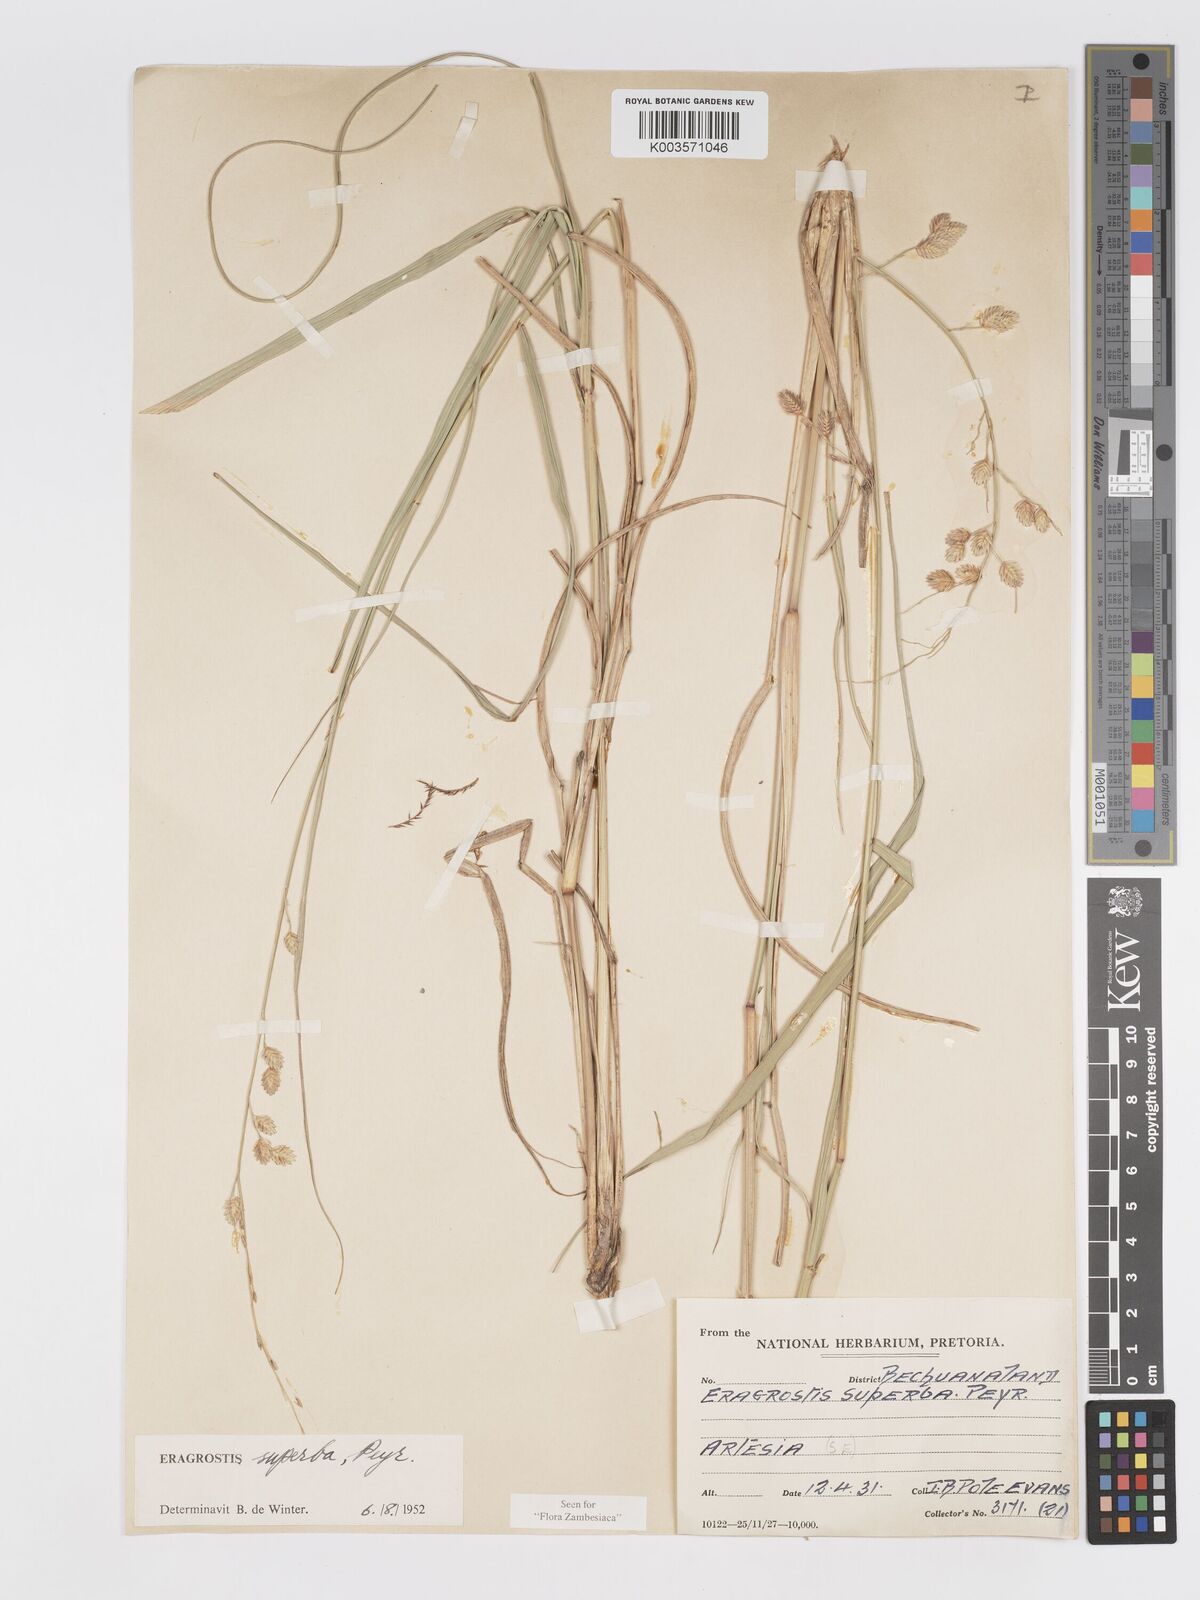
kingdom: Plantae
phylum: Tracheophyta
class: Liliopsida
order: Poales
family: Poaceae
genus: Eragrostis
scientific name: Eragrostis superba
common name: Wilman lovegrass
